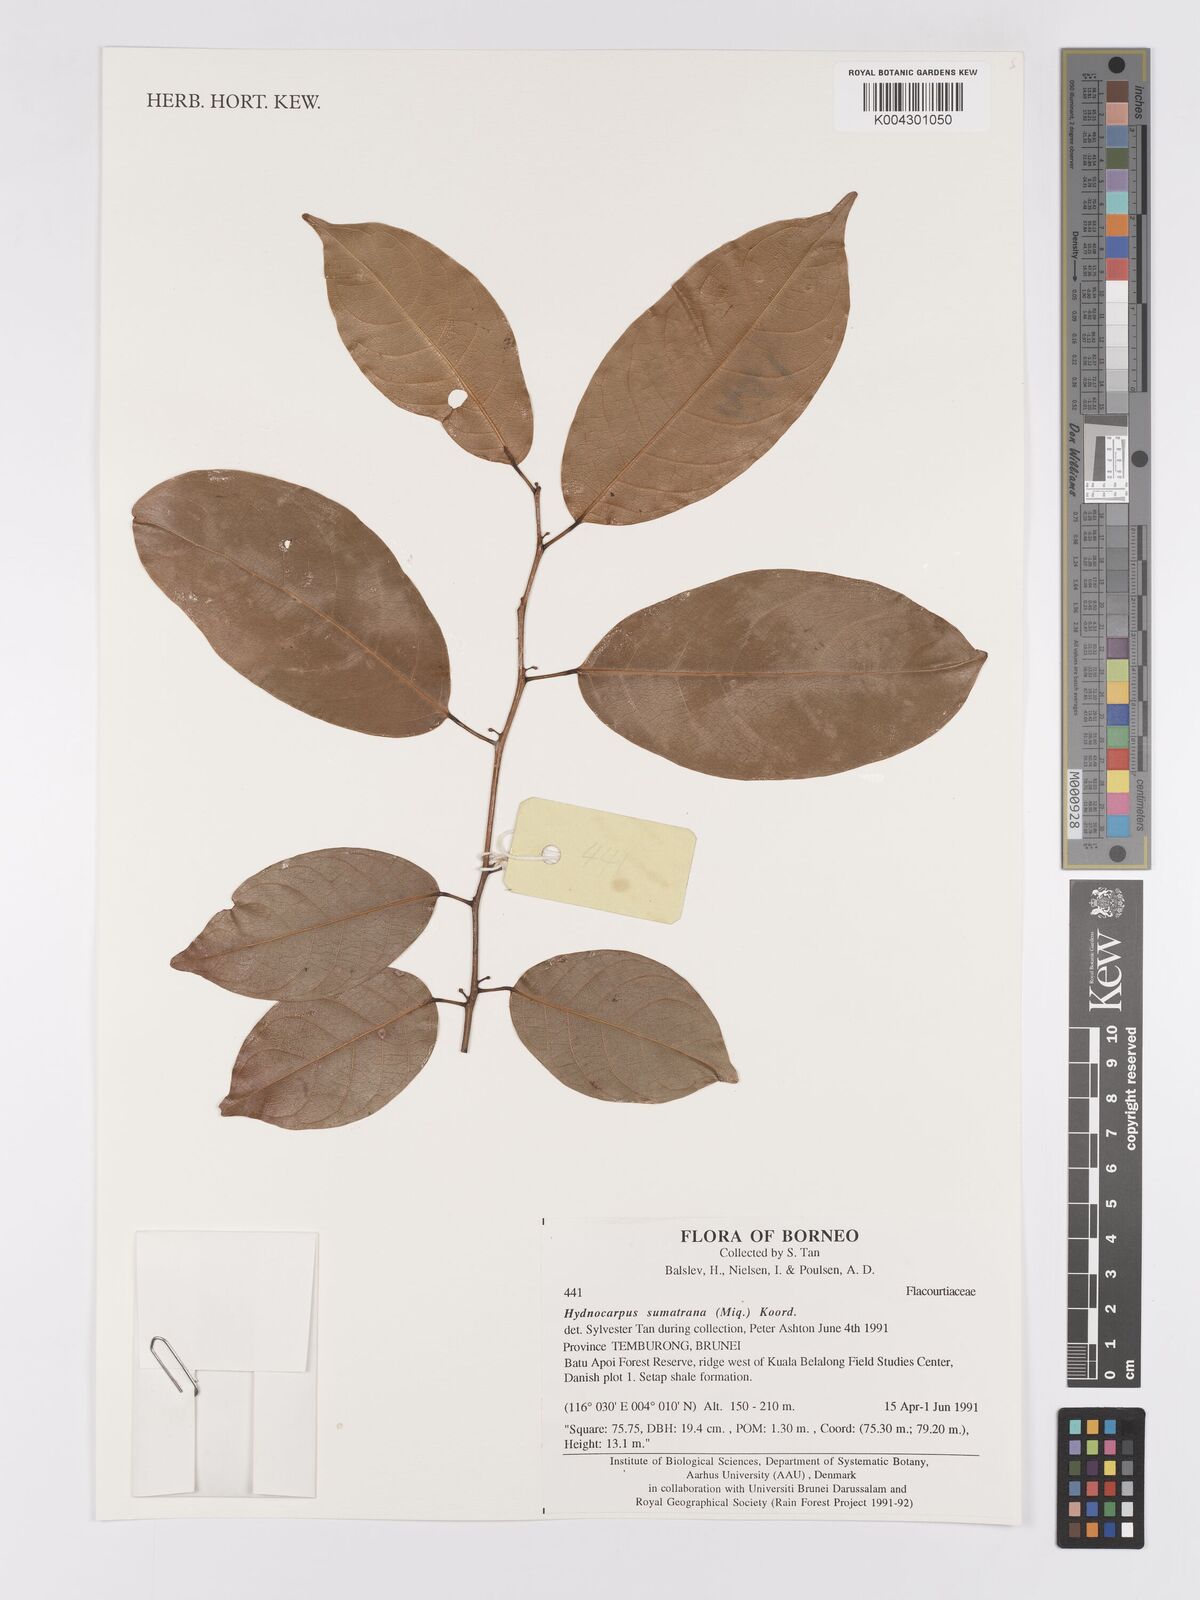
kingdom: Plantae
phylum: Tracheophyta
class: Magnoliopsida
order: Malpighiales
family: Achariaceae
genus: Hydnocarpus
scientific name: Hydnocarpus sumatranus
